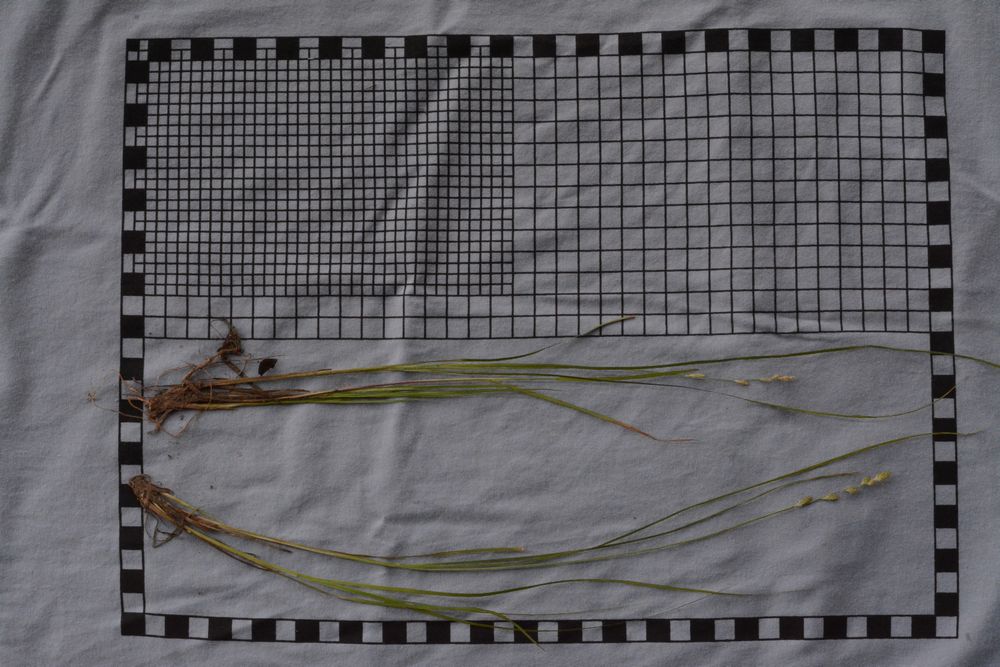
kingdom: Plantae
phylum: Tracheophyta
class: Liliopsida
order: Poales
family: Cyperaceae
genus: Carex
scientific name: Carex canescens
